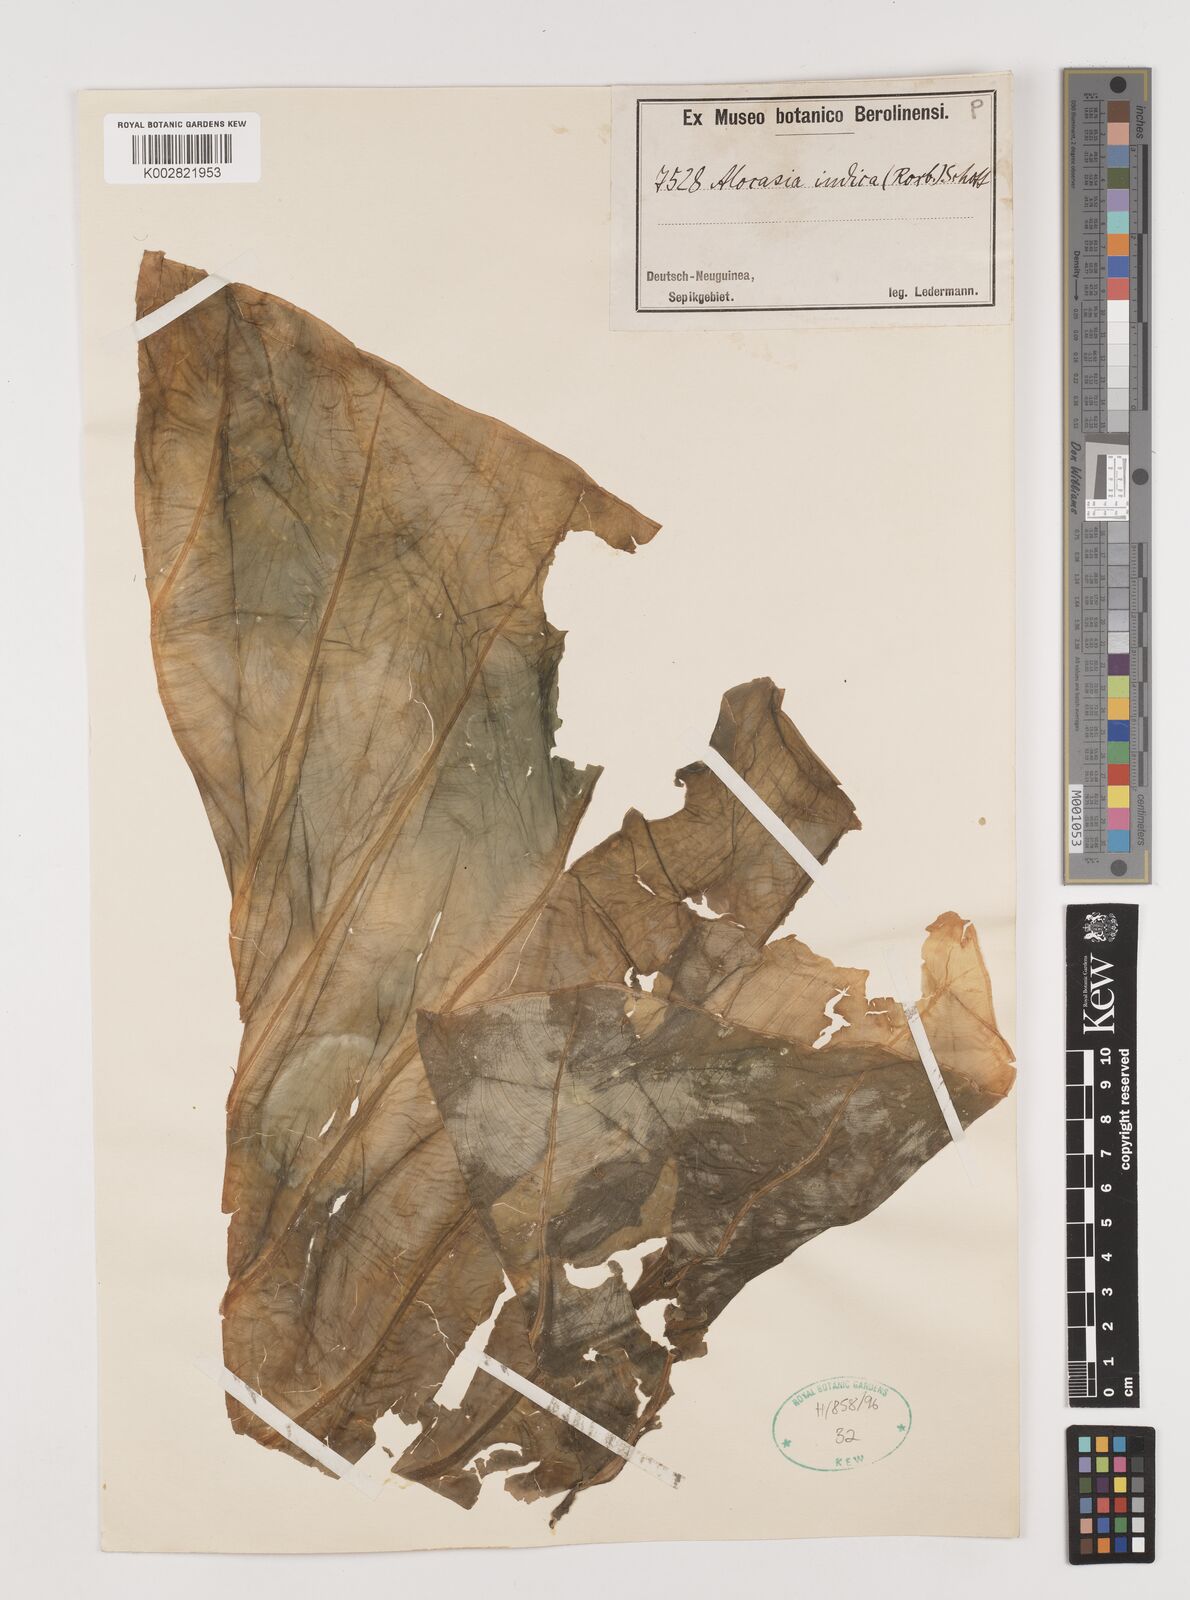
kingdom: Plantae
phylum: Tracheophyta
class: Liliopsida
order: Alismatales
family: Araceae
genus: Alocasia
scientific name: Alocasia macrorrhizos
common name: Giant taro
